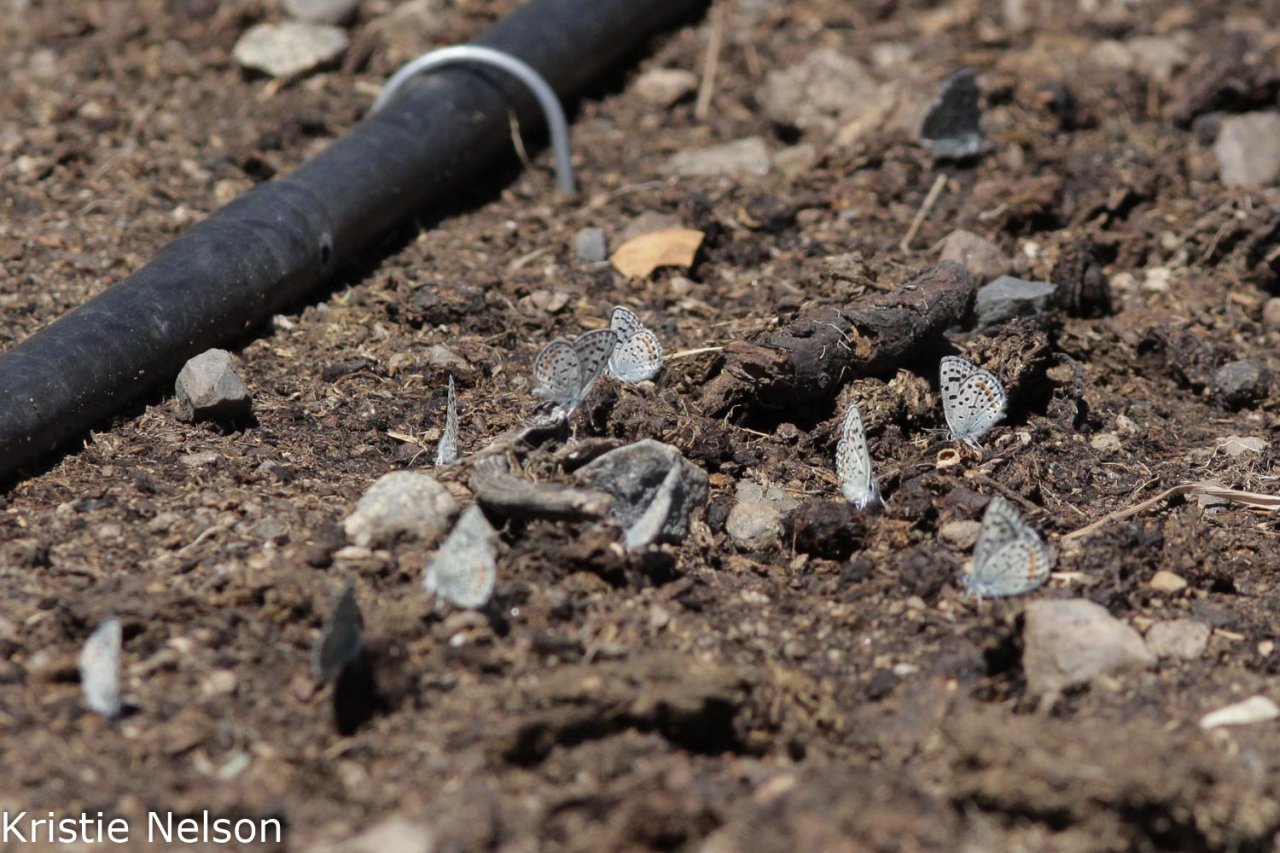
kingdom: Animalia
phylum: Arthropoda
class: Insecta
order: Lepidoptera
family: Lycaenidae
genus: Euphilotes
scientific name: Euphilotes
